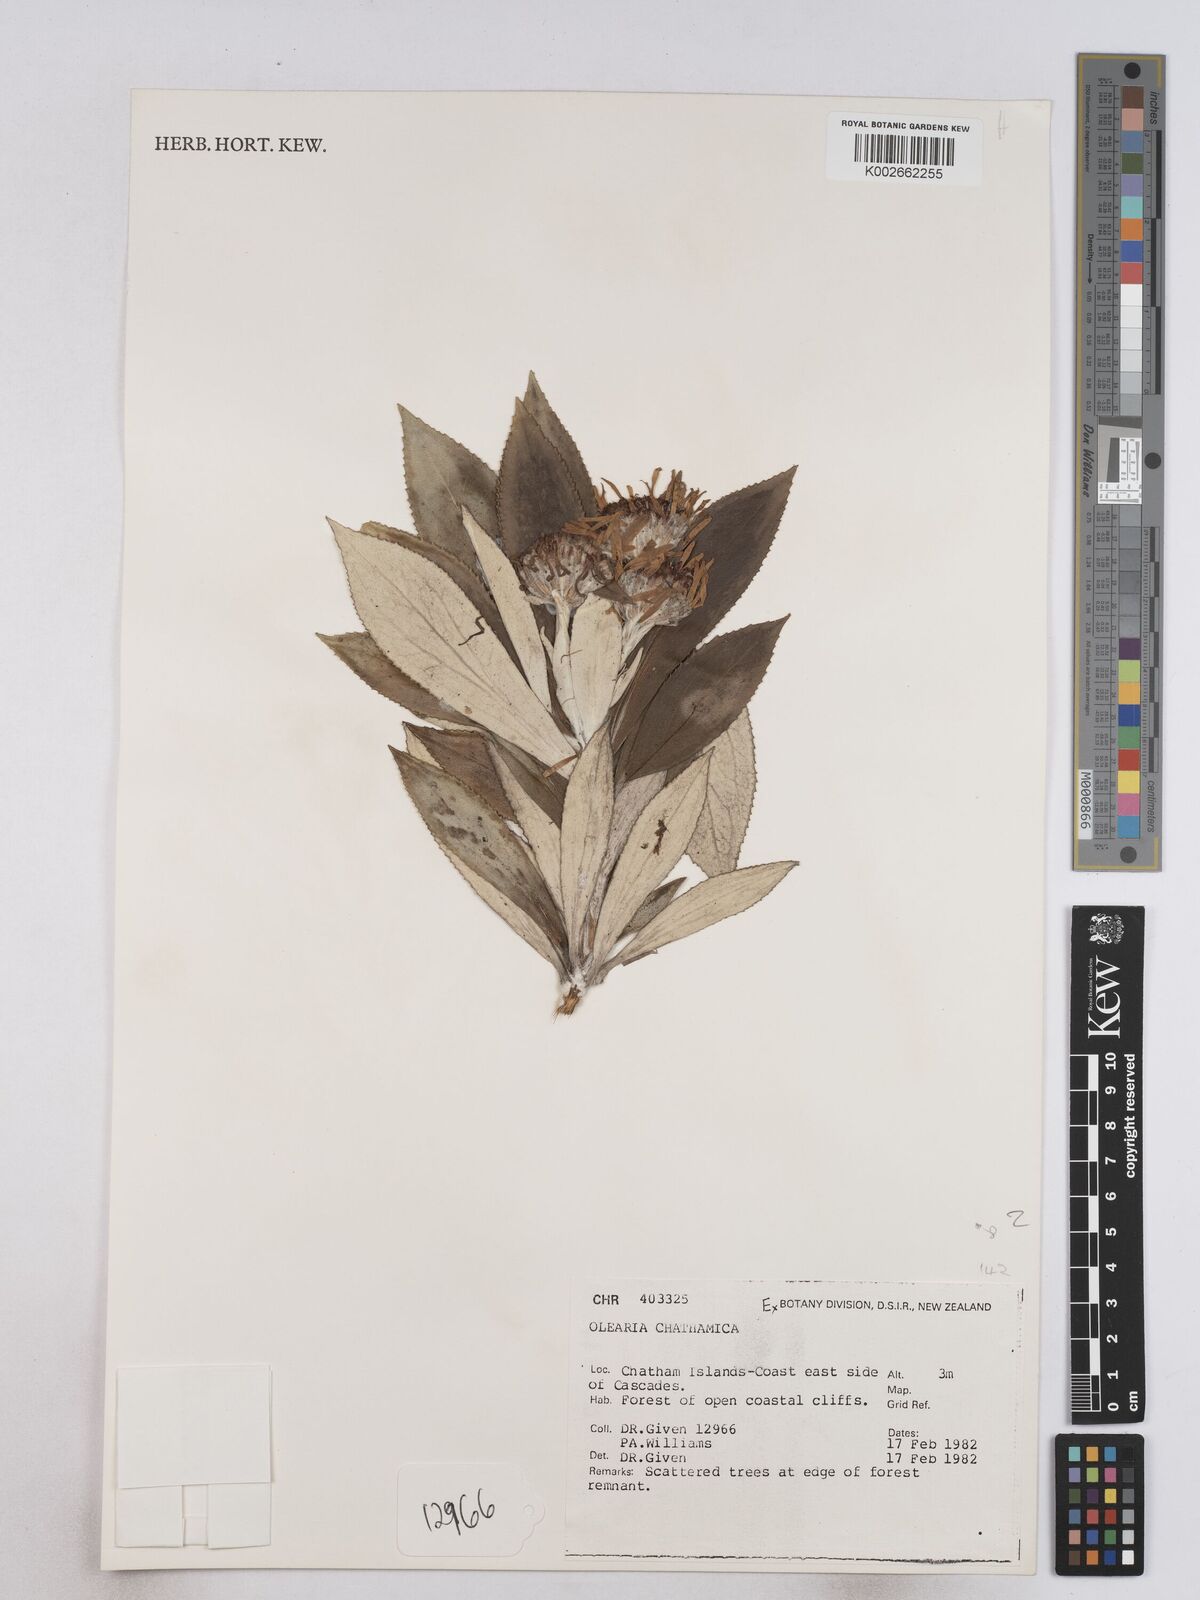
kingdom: Plantae
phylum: Tracheophyta
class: Magnoliopsida
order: Asterales
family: Asteraceae
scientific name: Asteraceae
